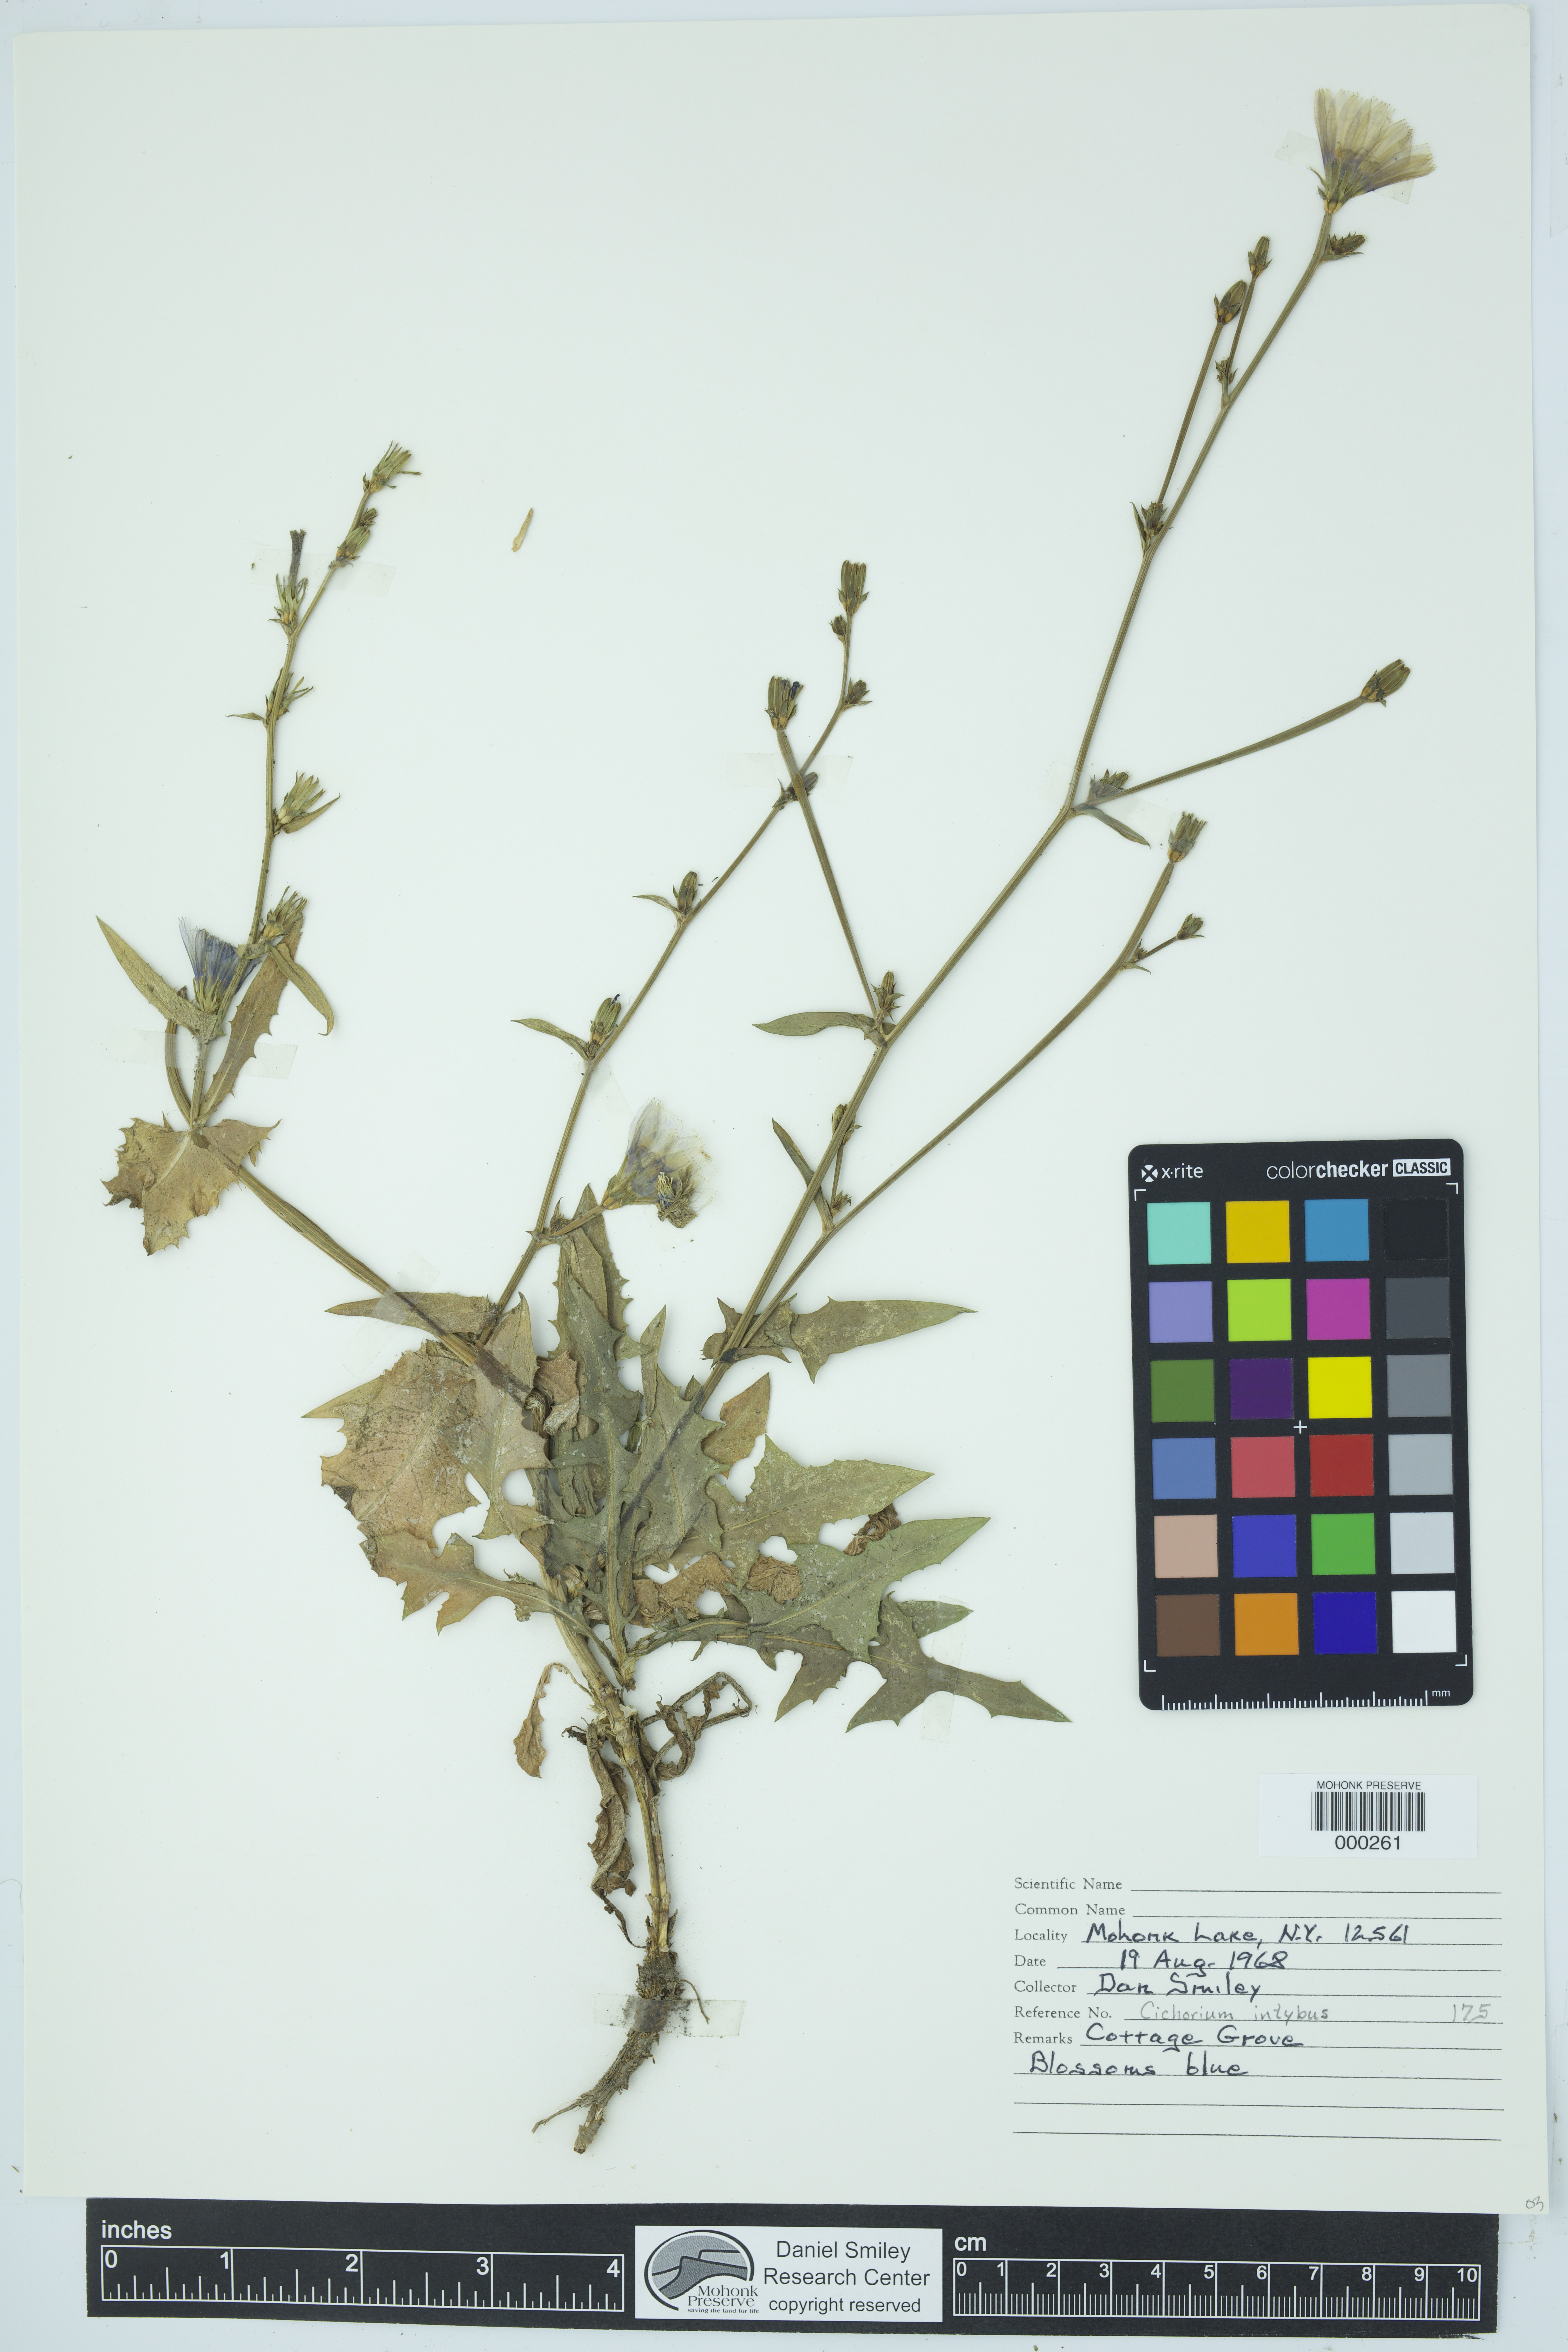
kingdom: Plantae
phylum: Tracheophyta
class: Magnoliopsida
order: Asterales
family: Asteraceae
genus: Cichorium
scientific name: Cichorium intybus
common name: Chicory
